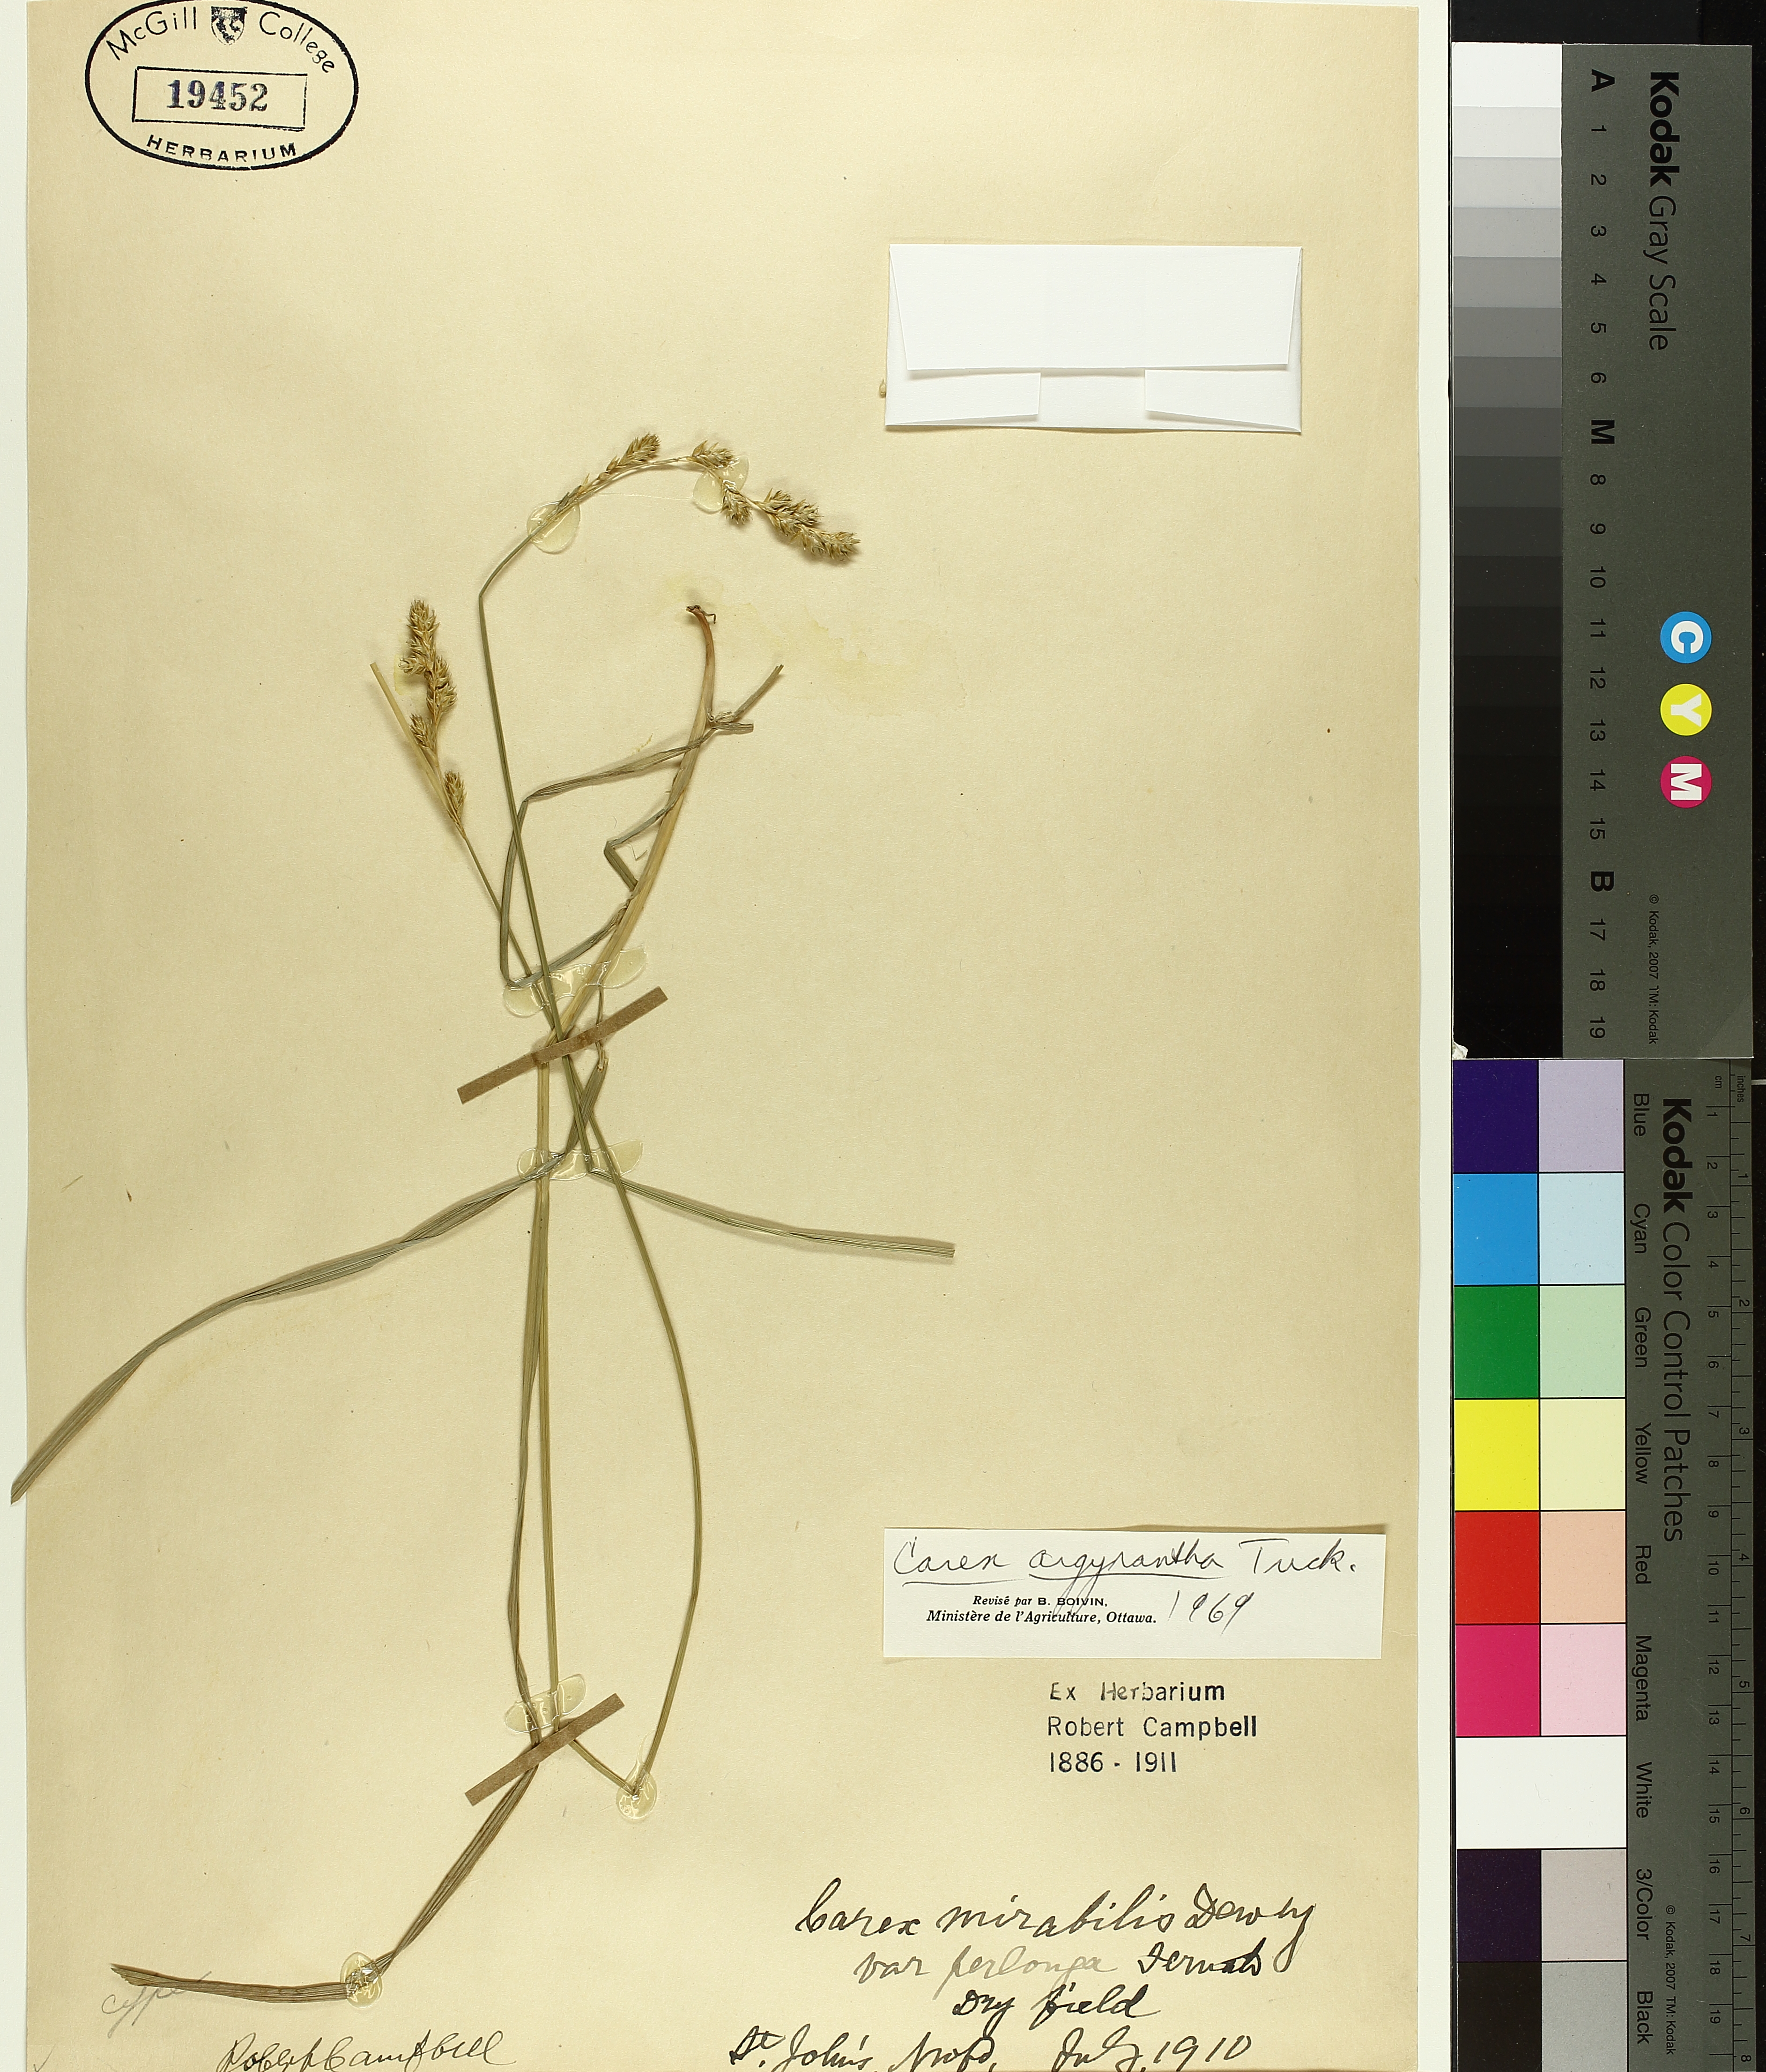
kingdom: Plantae
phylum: Tracheophyta
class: Liliopsida
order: Poales
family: Cyperaceae
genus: Carex
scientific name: Carex argyrantha
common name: Silvery-flowered sedge
